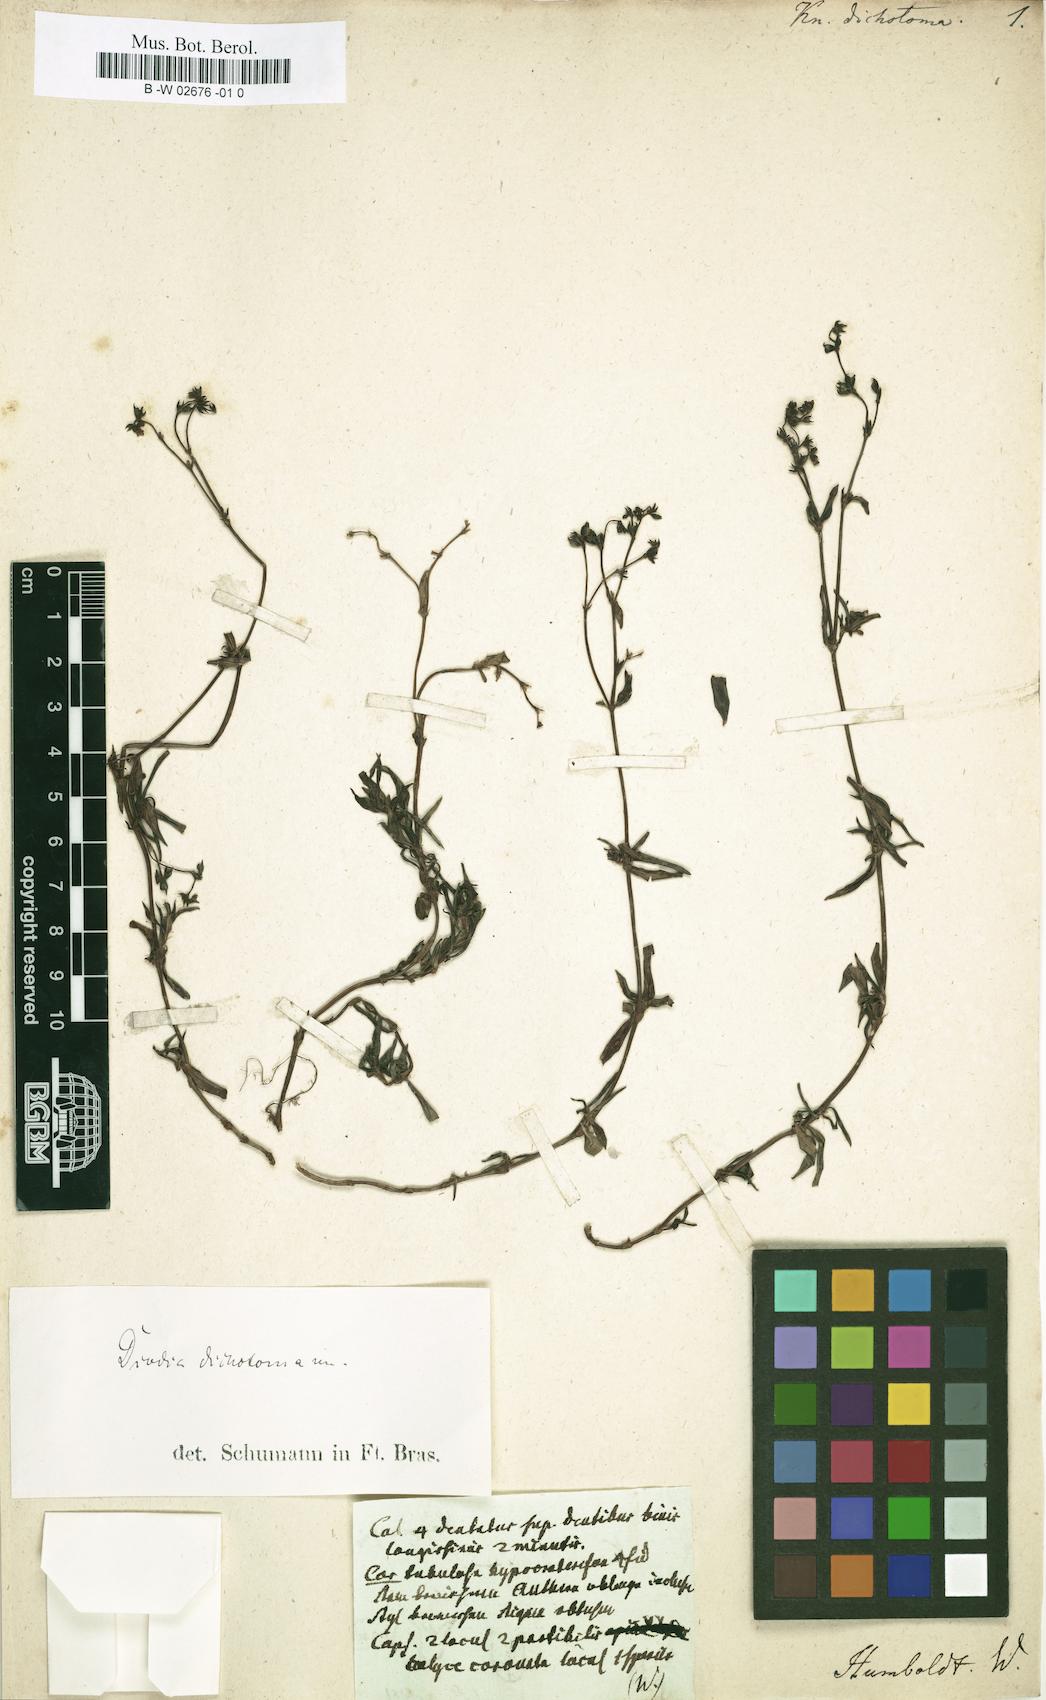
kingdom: Plantae
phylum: Tracheophyta
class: Magnoliopsida
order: Gentianales
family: Rubiaceae
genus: Galianthe
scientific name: Galianthe dichotoma
